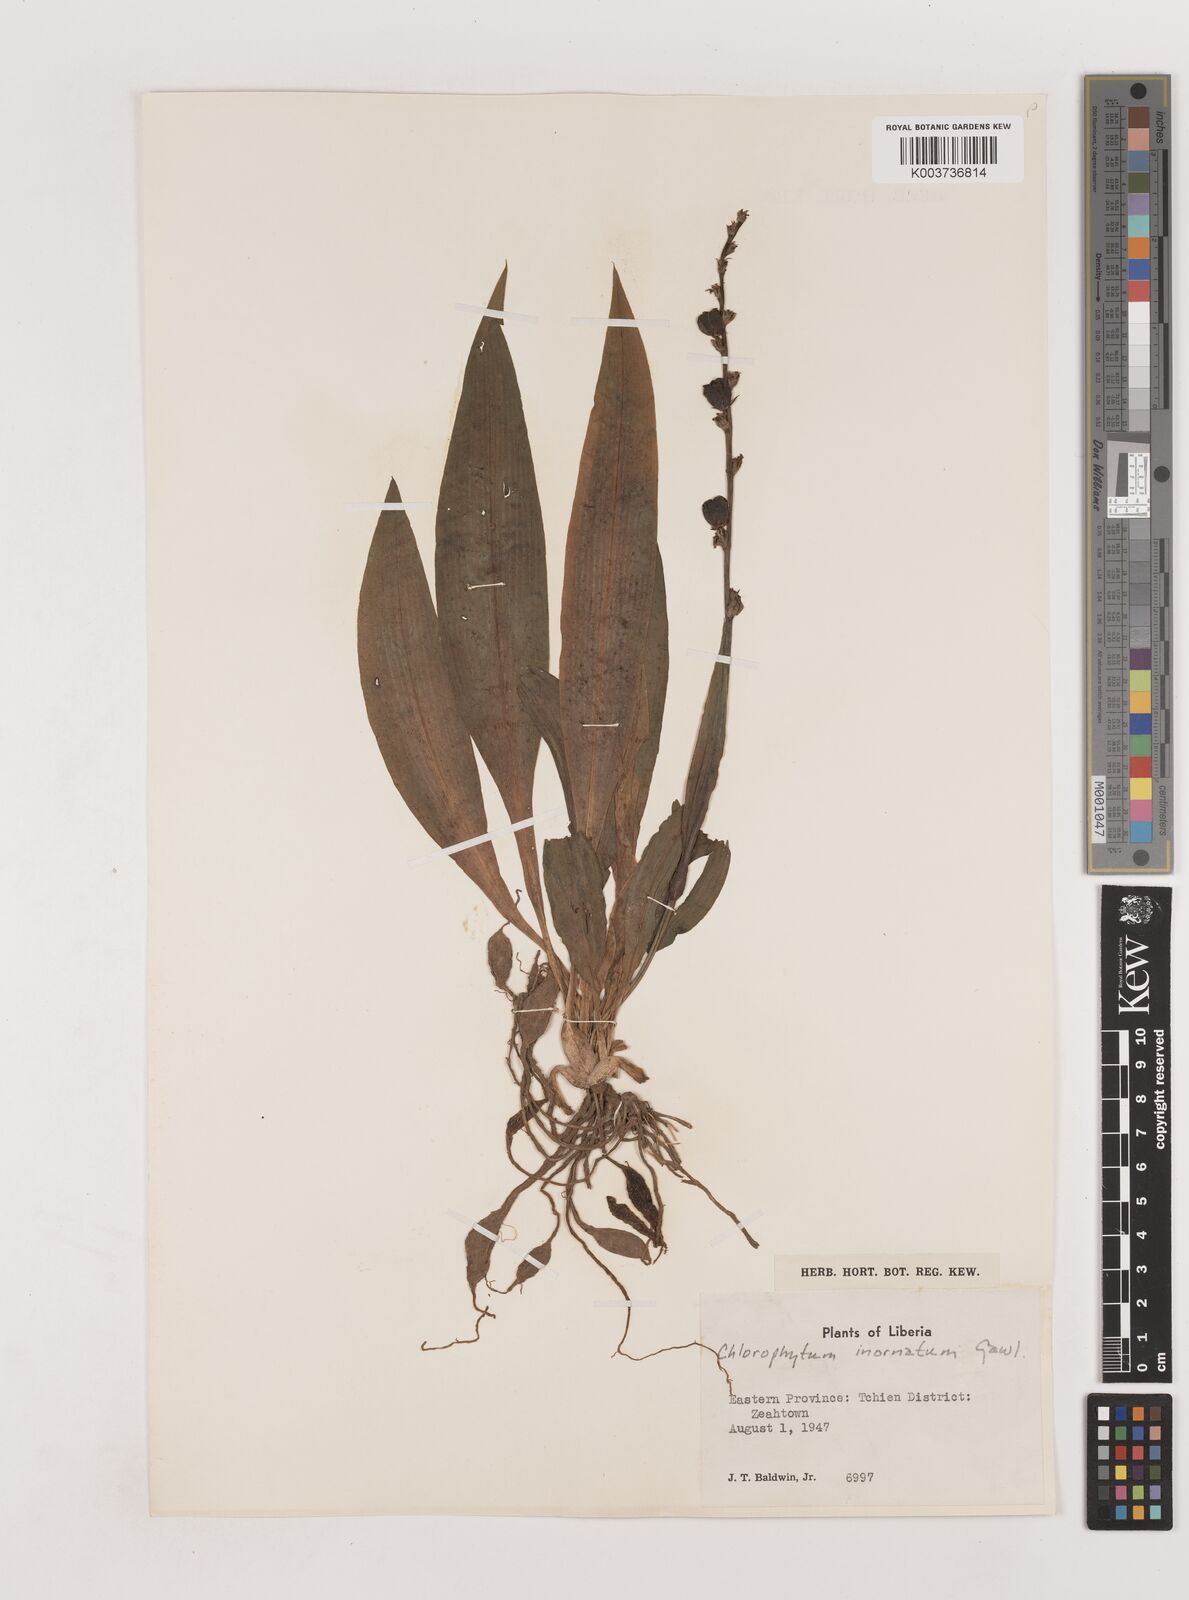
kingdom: Plantae
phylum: Tracheophyta
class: Liliopsida
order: Asparagales
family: Asparagaceae
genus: Chlorophytum
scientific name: Chlorophytum inornatum
